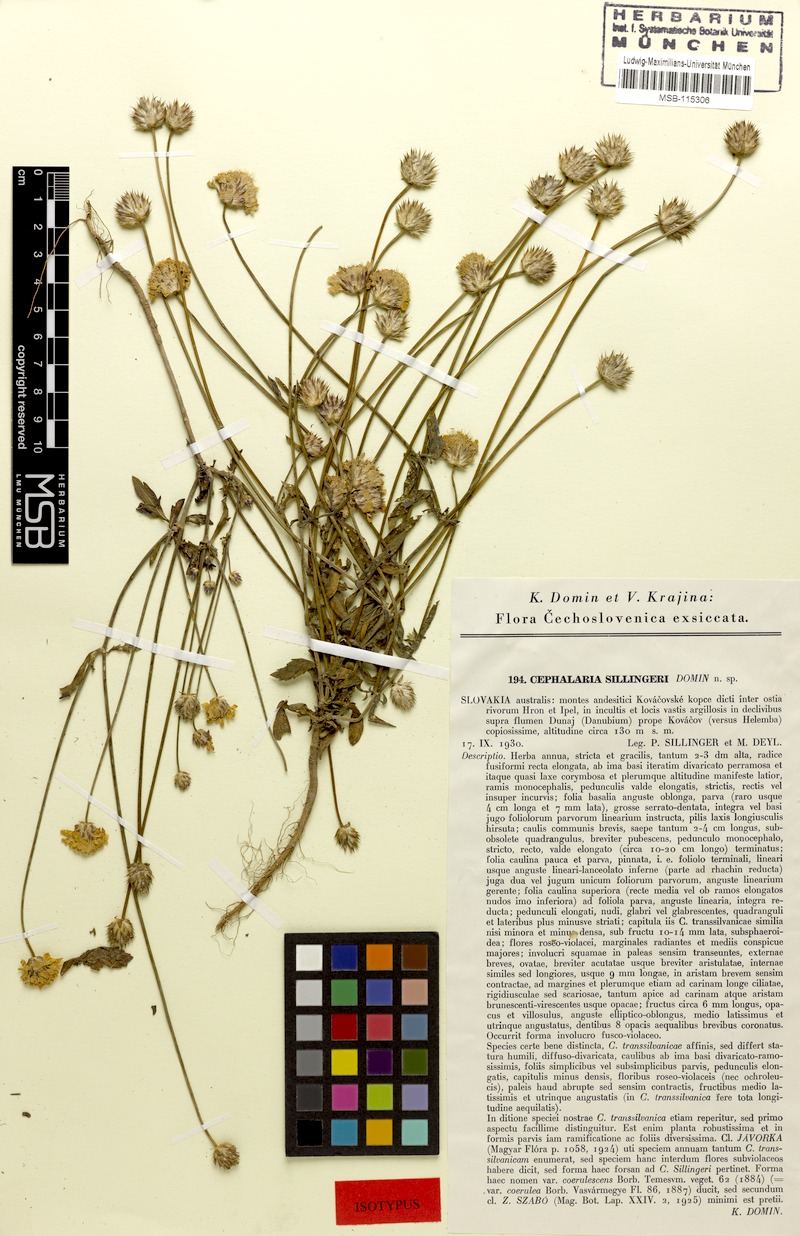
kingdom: Plantae
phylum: Tracheophyta
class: Magnoliopsida
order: Dipsacales
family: Caprifoliaceae
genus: Cephalaria
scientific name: Cephalaria transsylvanica
